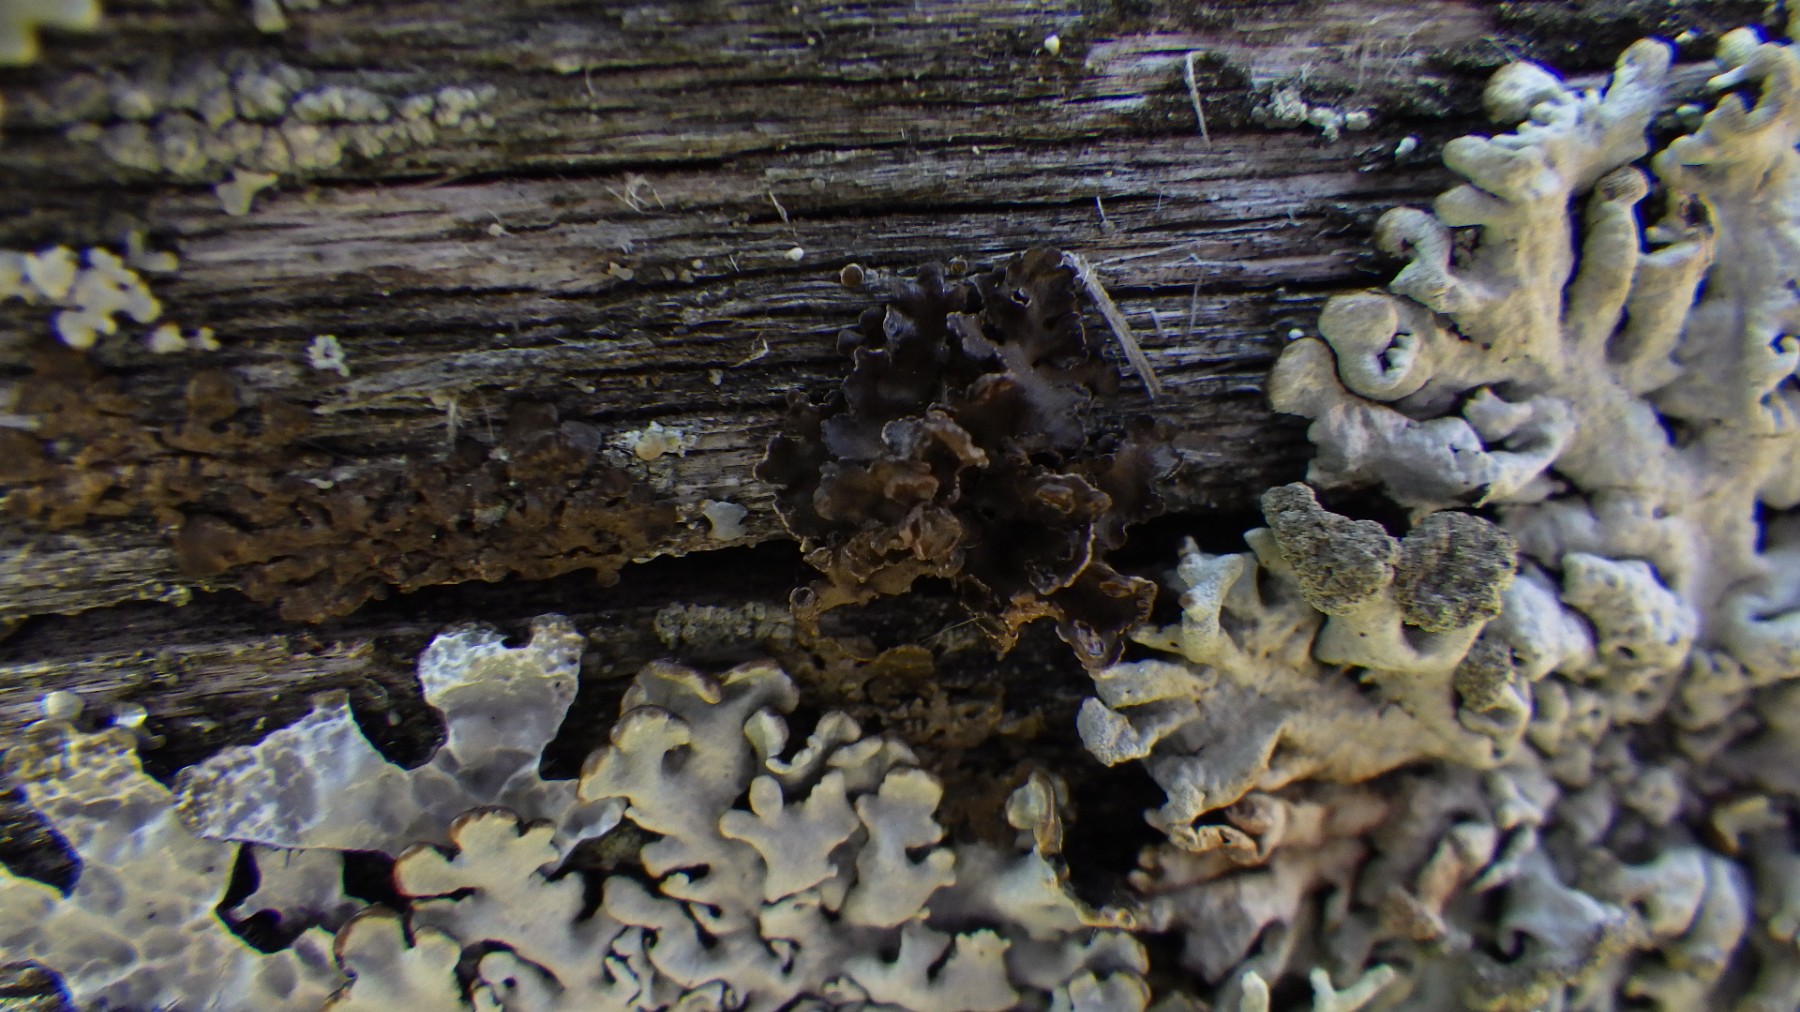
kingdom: Fungi
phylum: Ascomycota
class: Lecanoromycetes
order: Lecanorales
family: Parmeliaceae
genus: Cetraria
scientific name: Cetraria sepincola
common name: tue-kruslav
